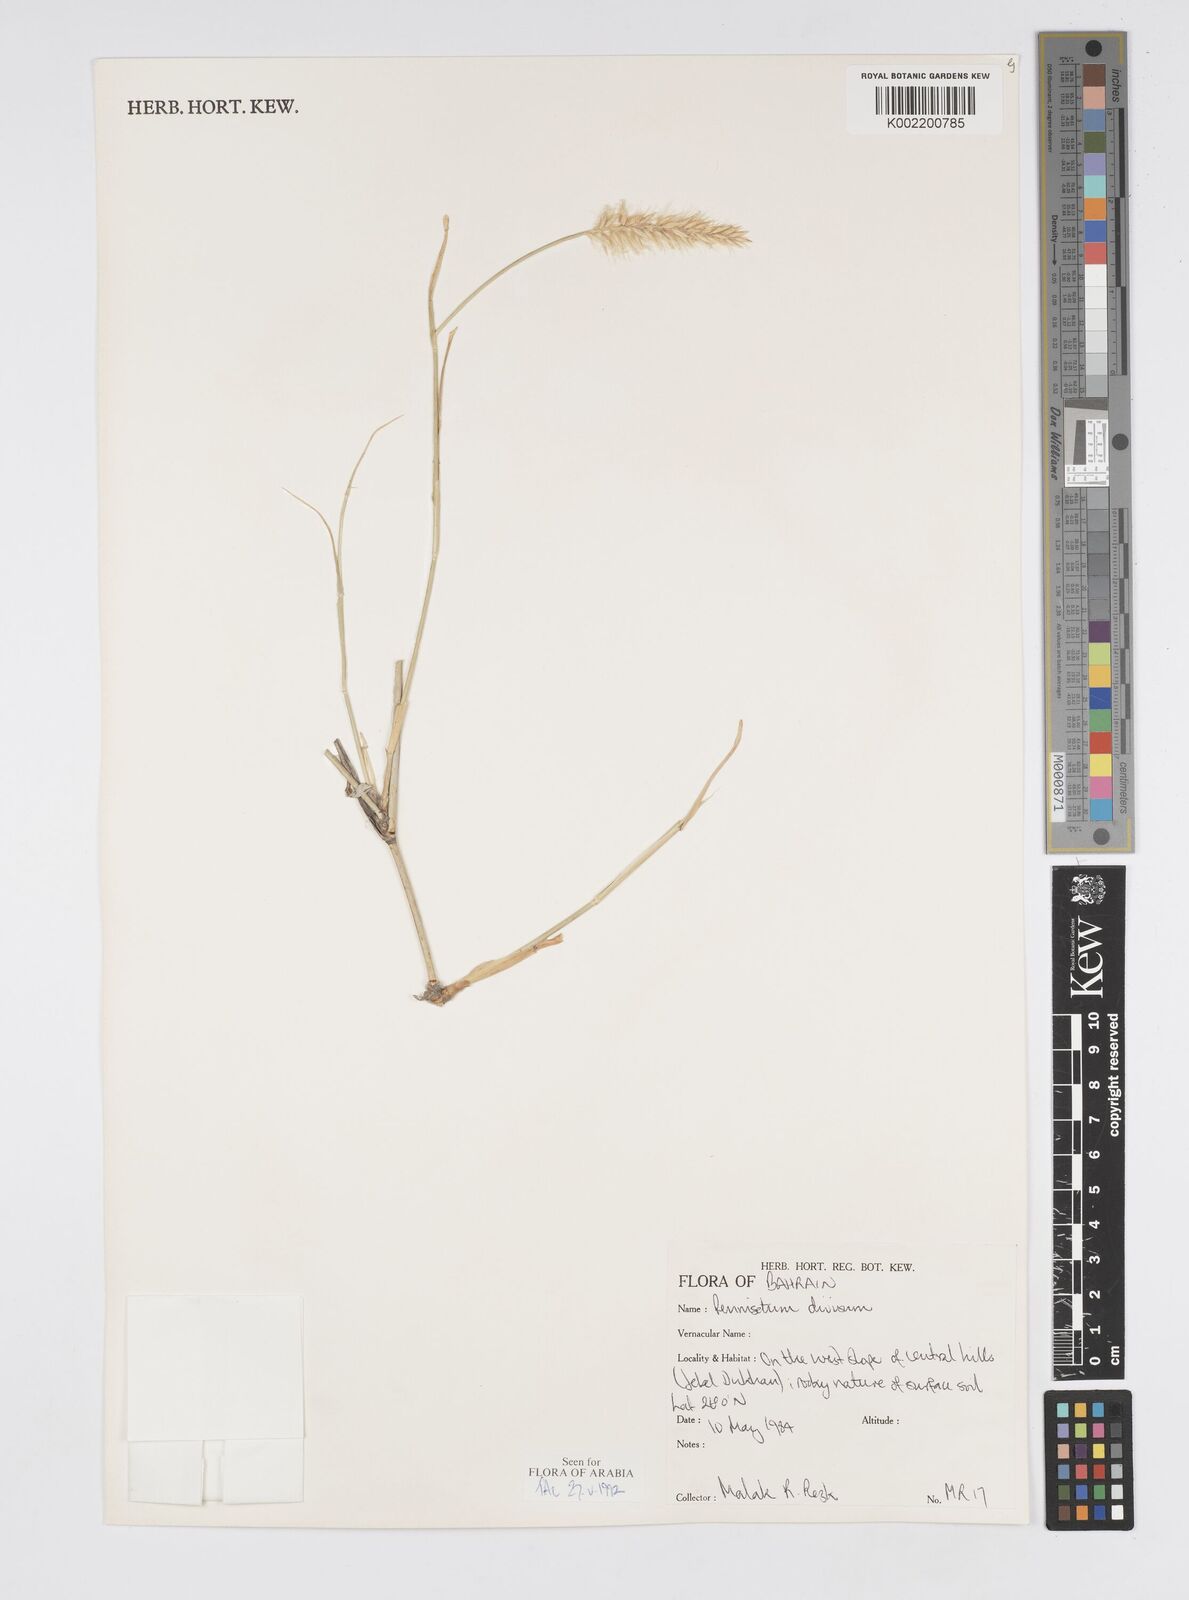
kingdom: Plantae
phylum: Tracheophyta
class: Liliopsida
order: Poales
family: Poaceae
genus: Cenchrus
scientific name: Cenchrus divisus
